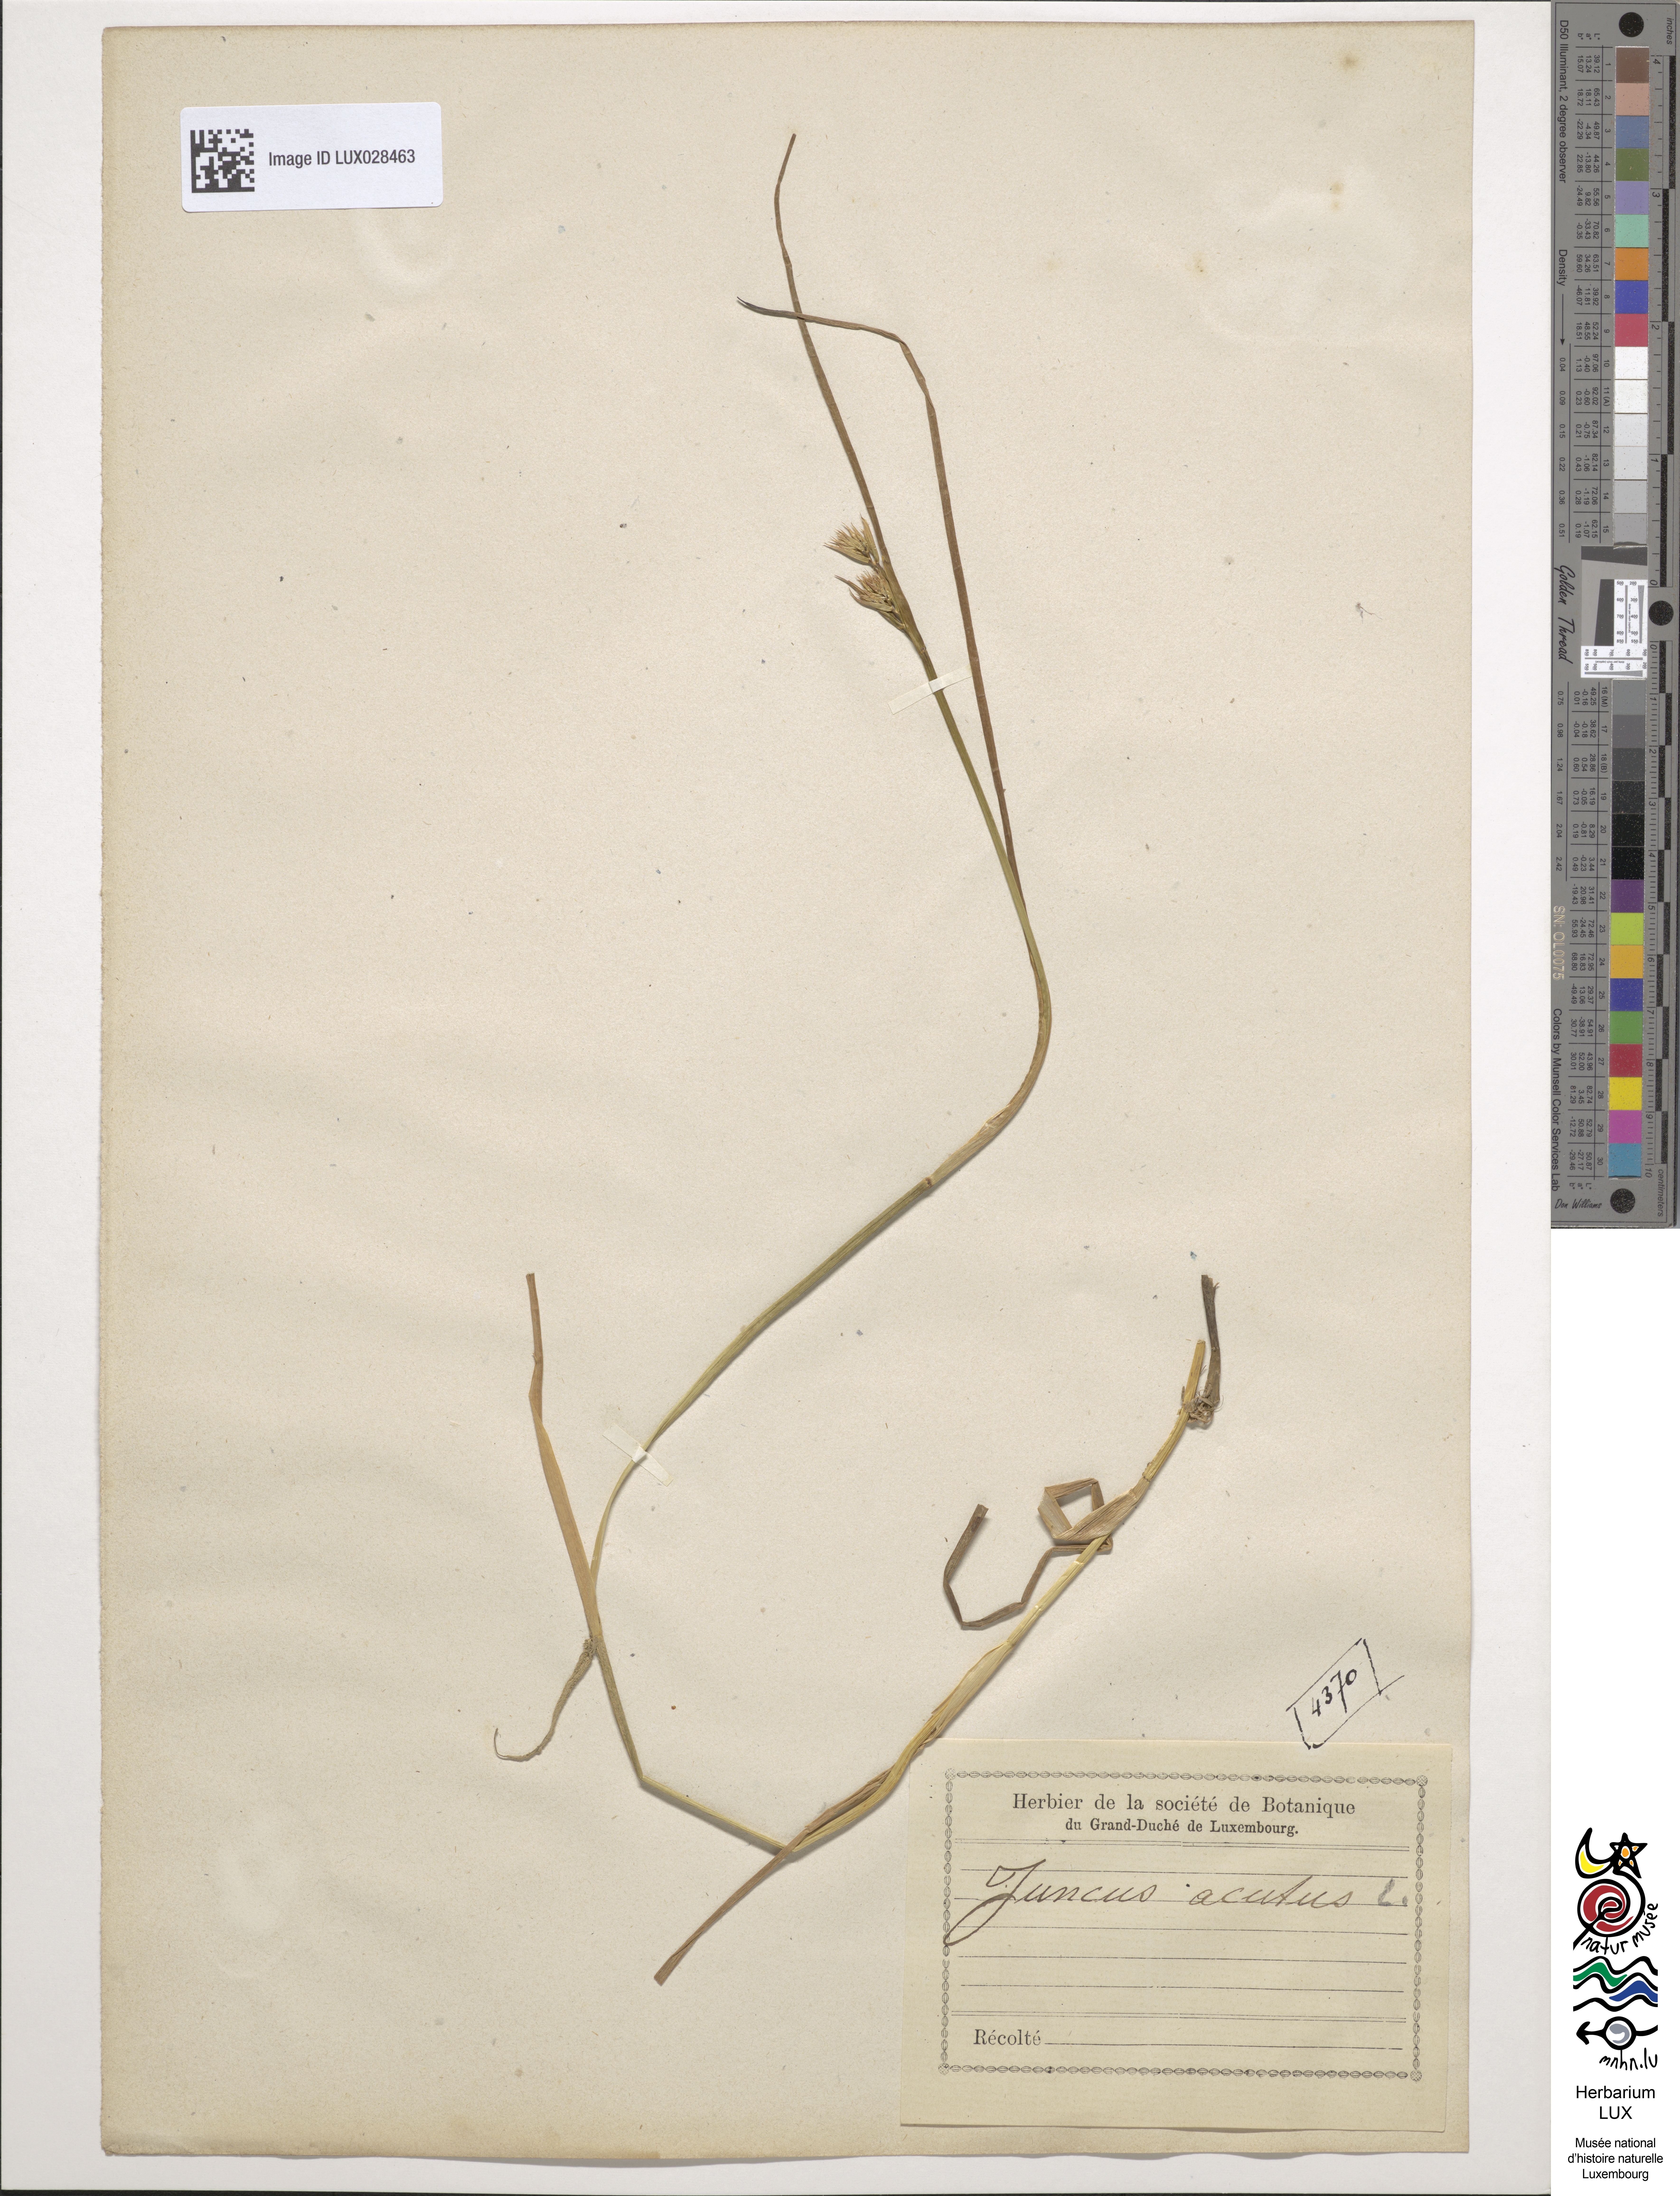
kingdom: Plantae
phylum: Tracheophyta
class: Liliopsida
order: Poales
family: Juncaceae
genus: Juncus
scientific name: Juncus acutus
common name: Sharp rush
